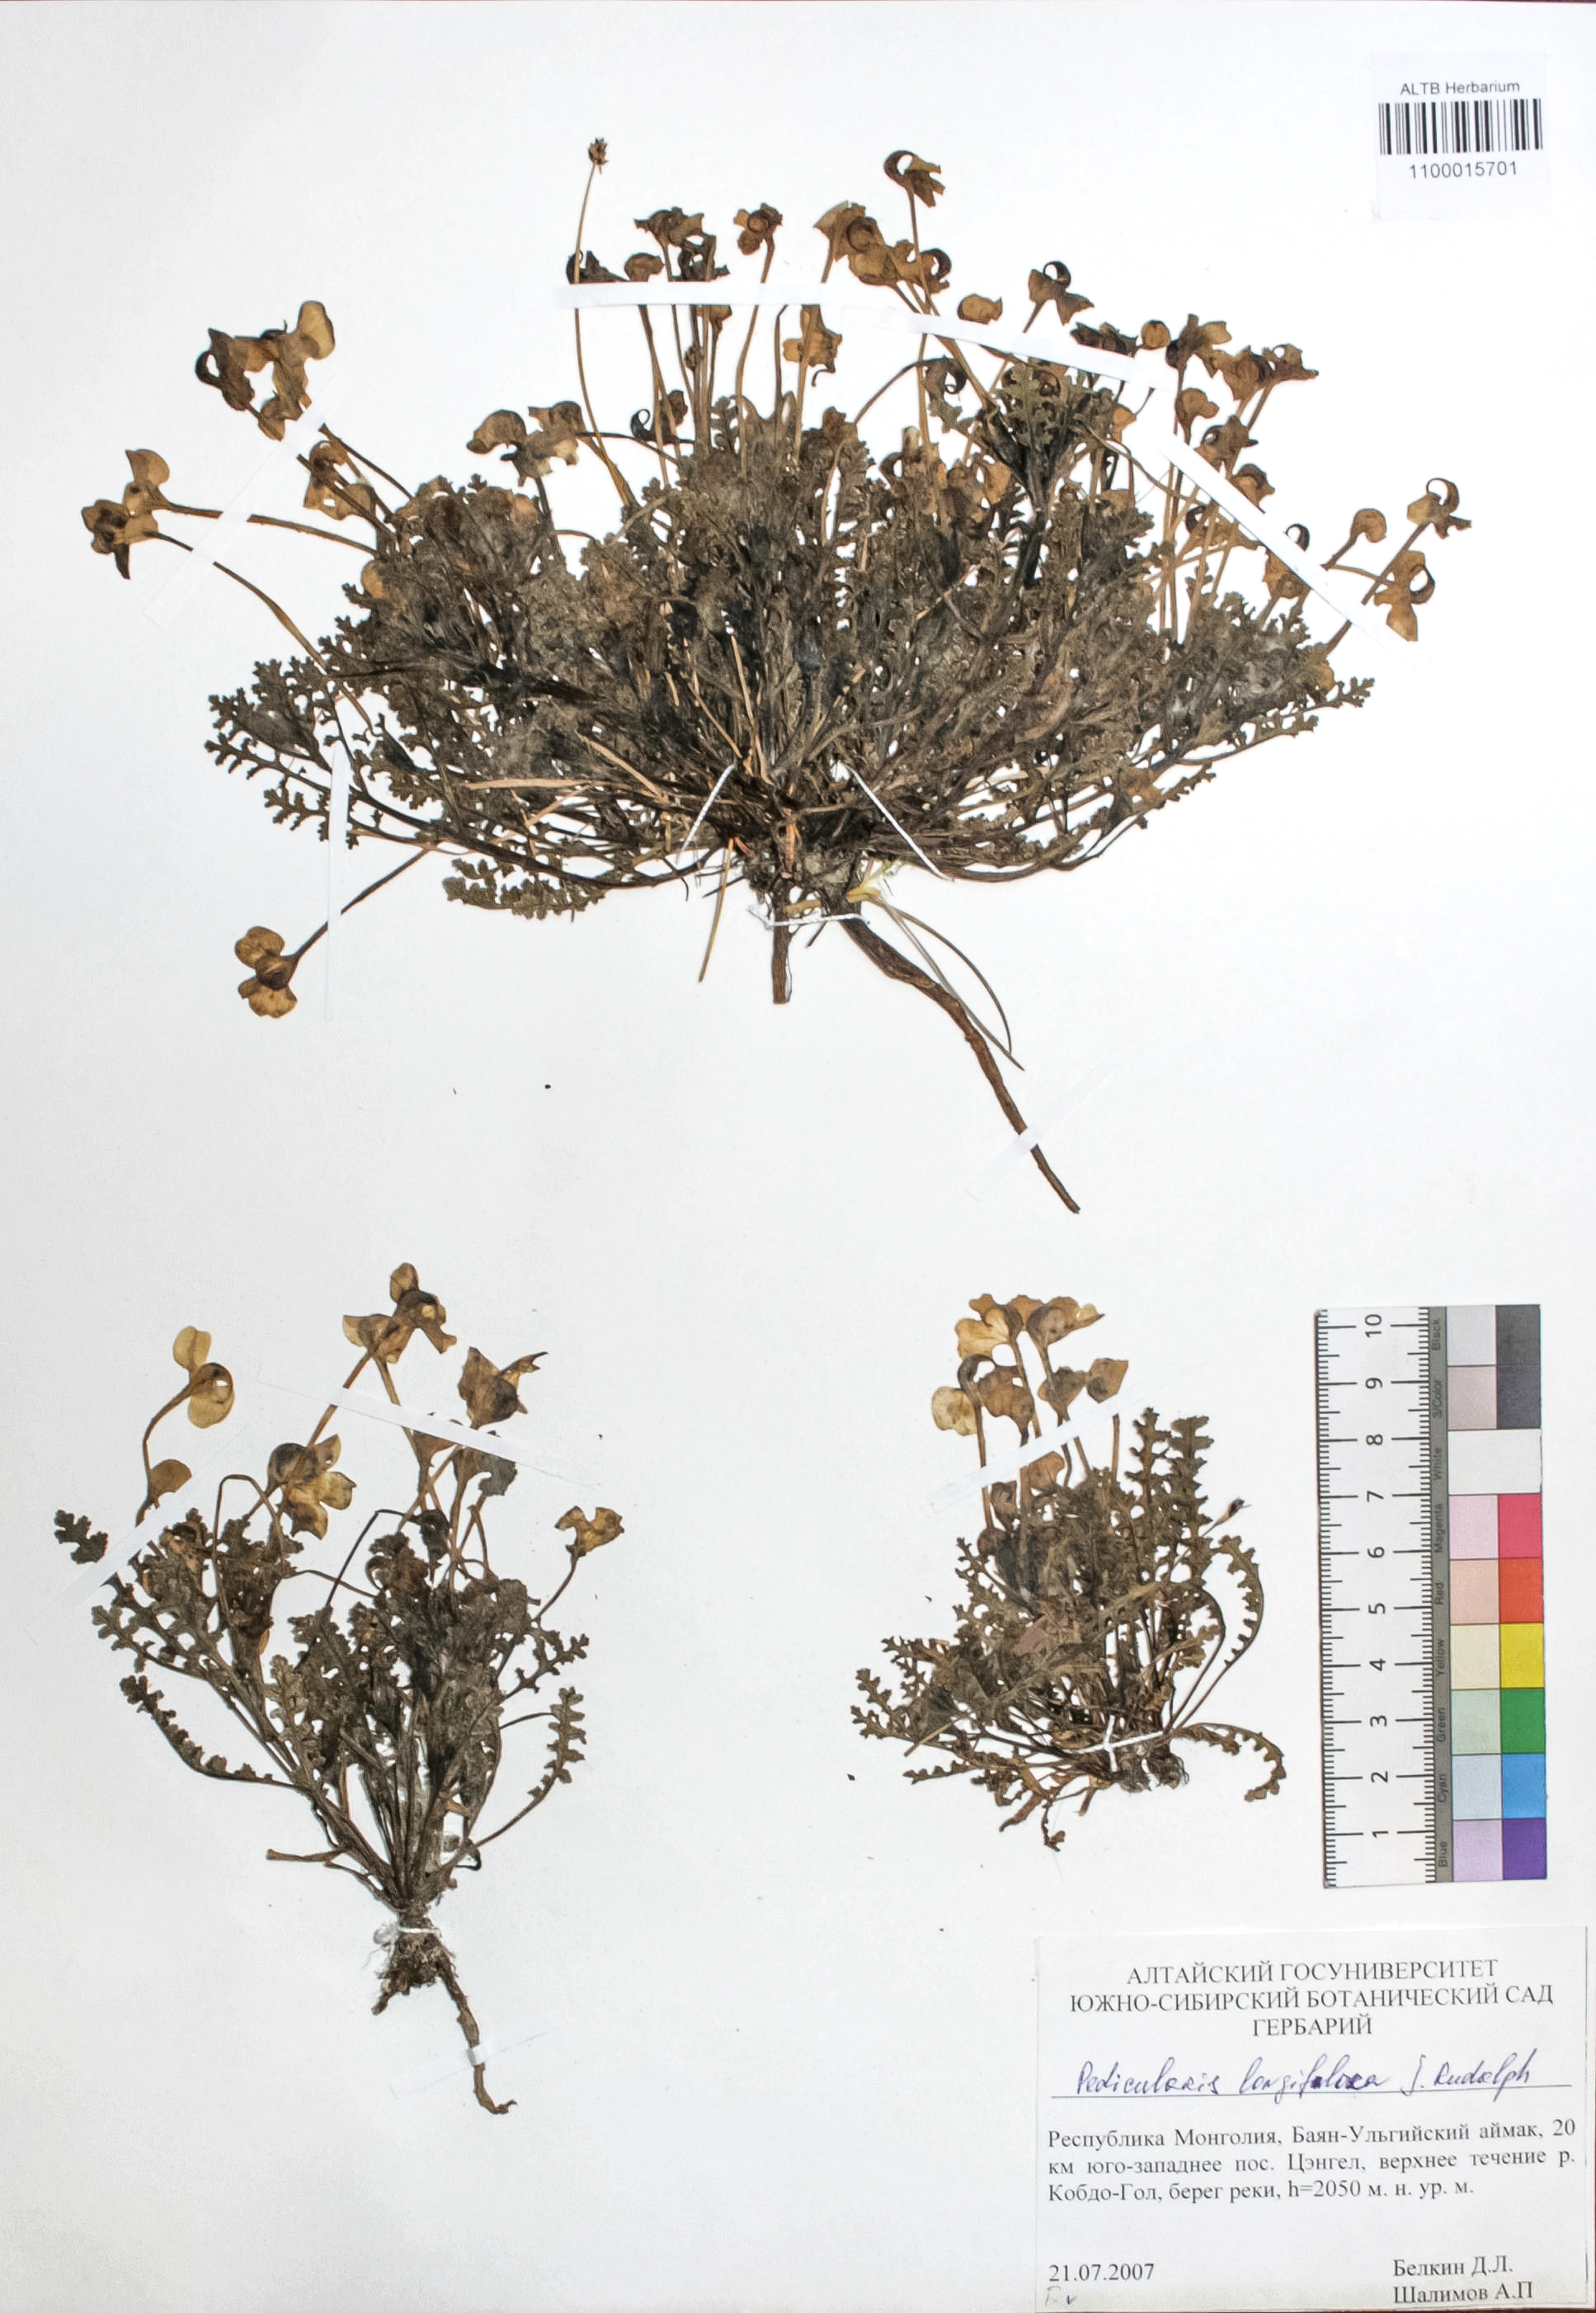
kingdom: Plantae
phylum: Tracheophyta
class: Magnoliopsida
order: Lamiales
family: Orobanchaceae
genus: Pedicularis
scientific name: Pedicularis longiflora
